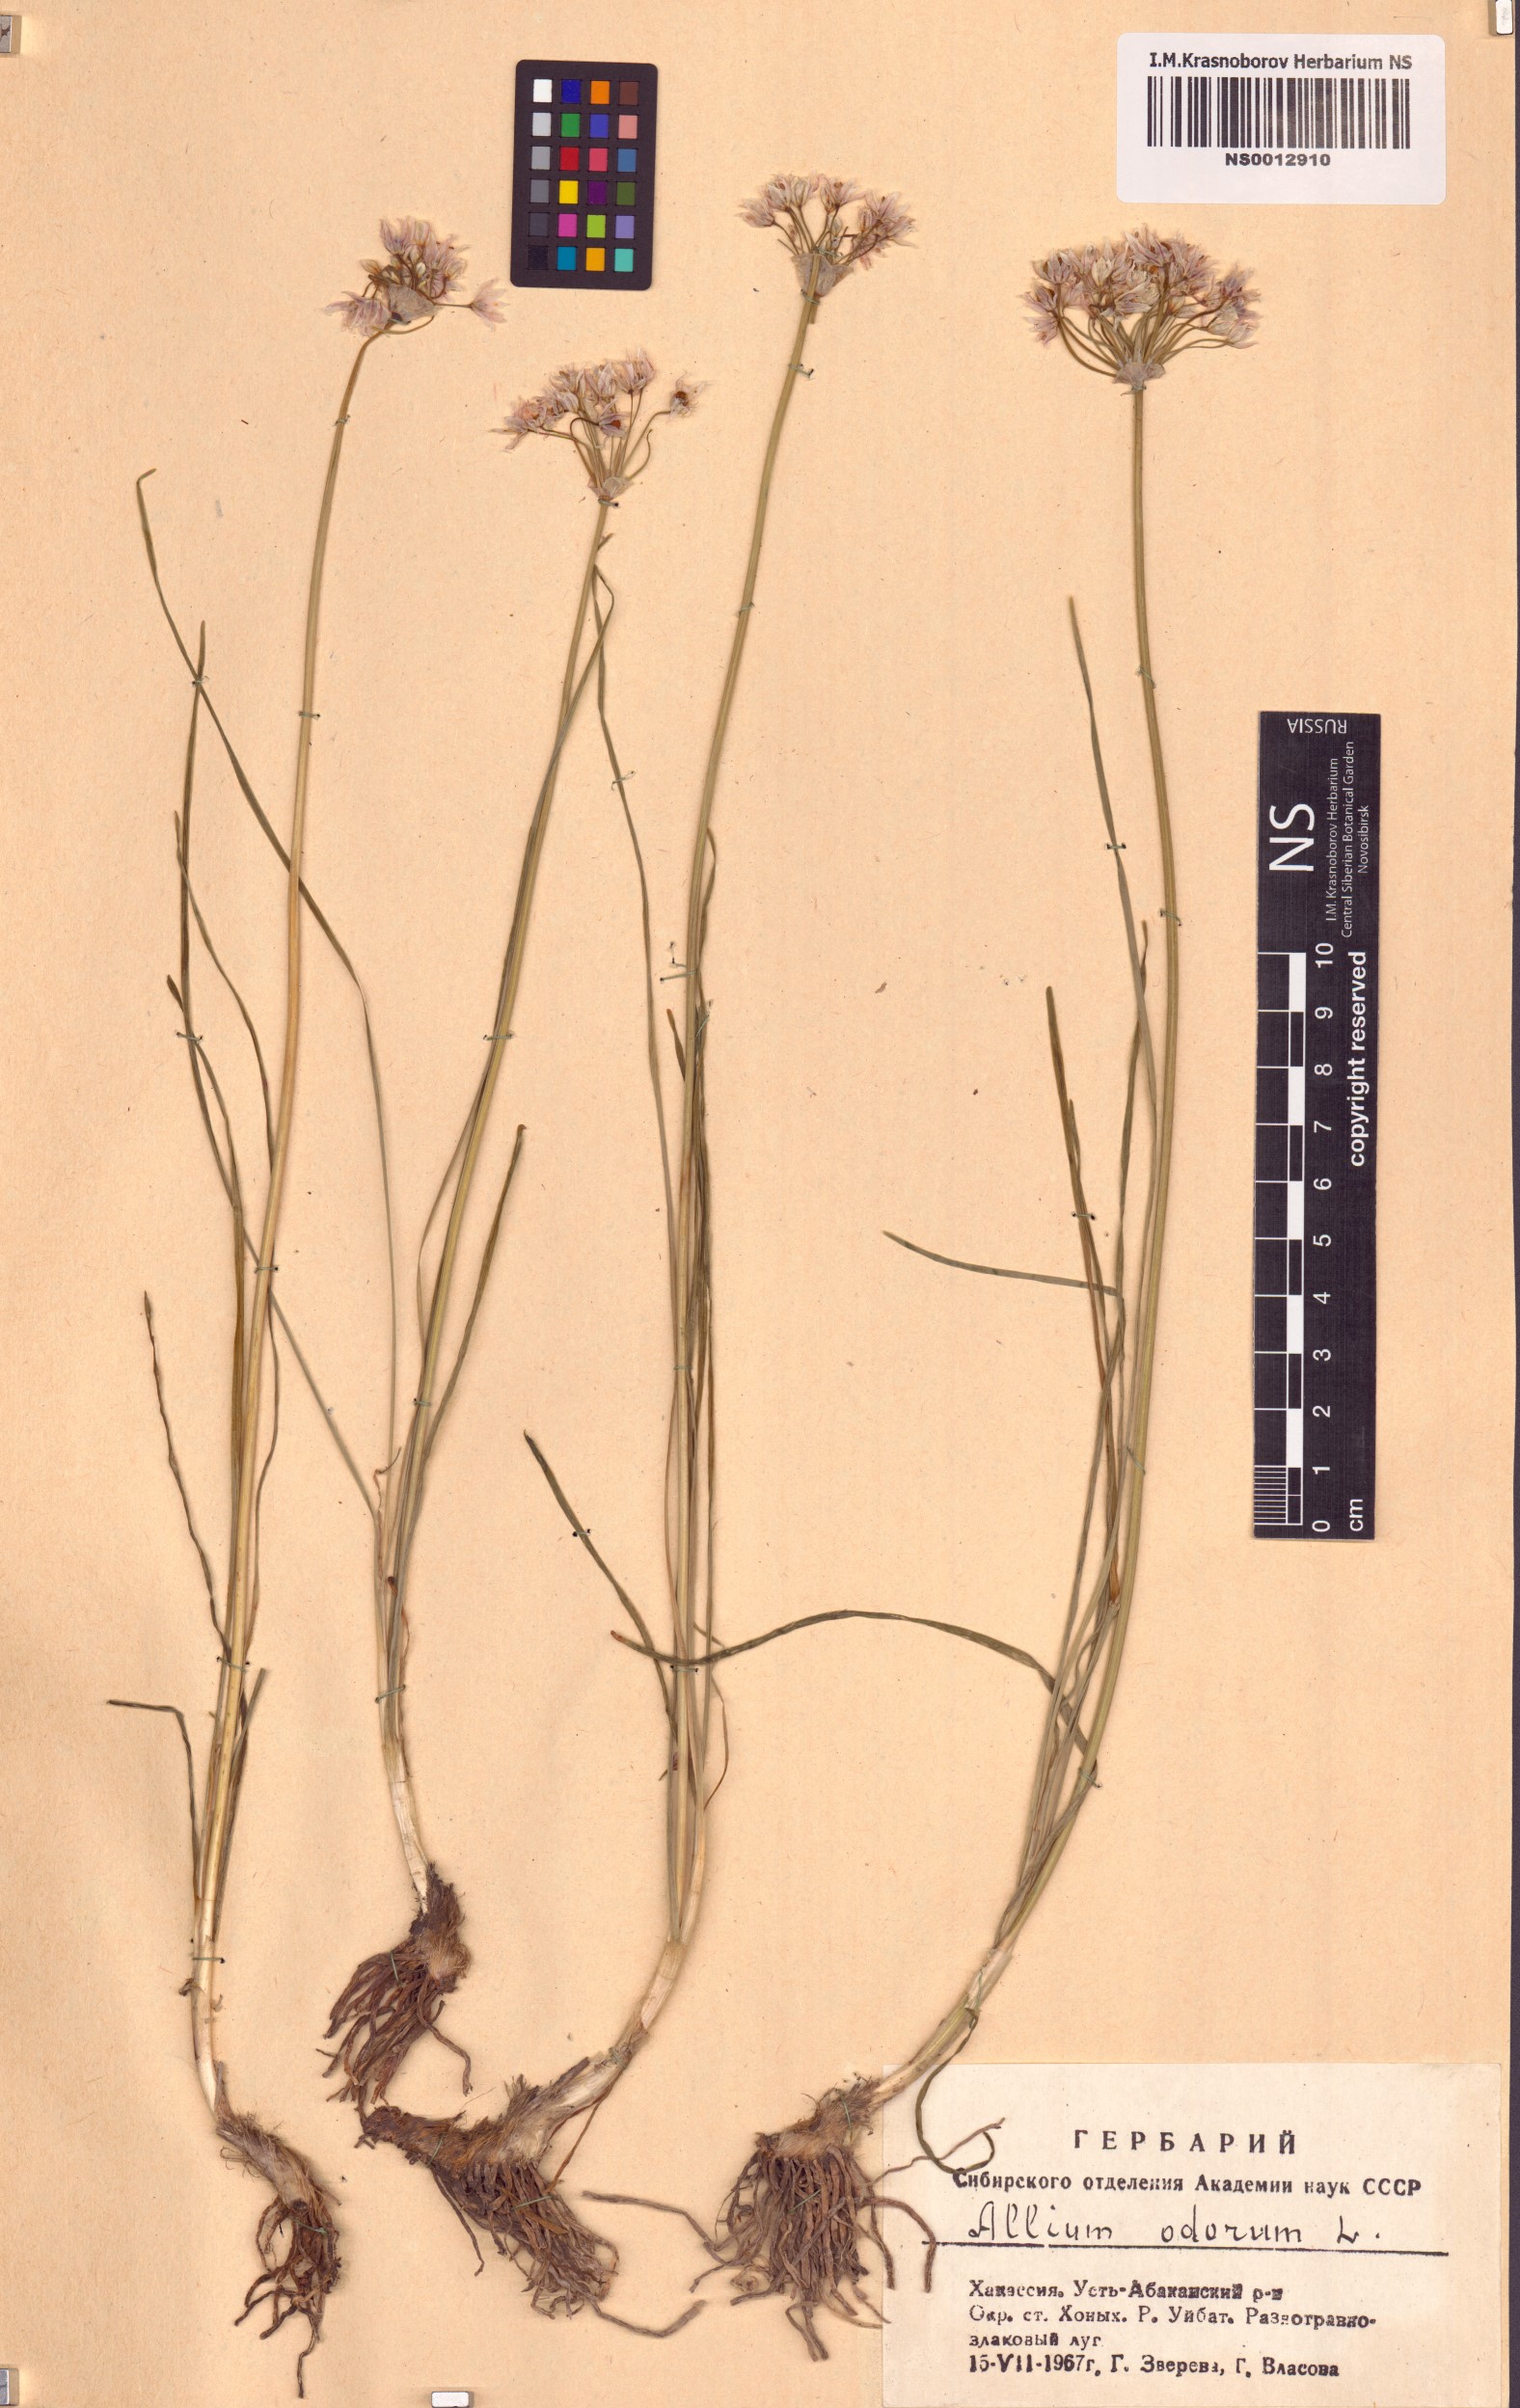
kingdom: Plantae
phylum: Tracheophyta
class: Liliopsida
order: Asparagales
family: Amaryllidaceae
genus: Allium
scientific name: Allium ramosum
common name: Fragrant garlic
